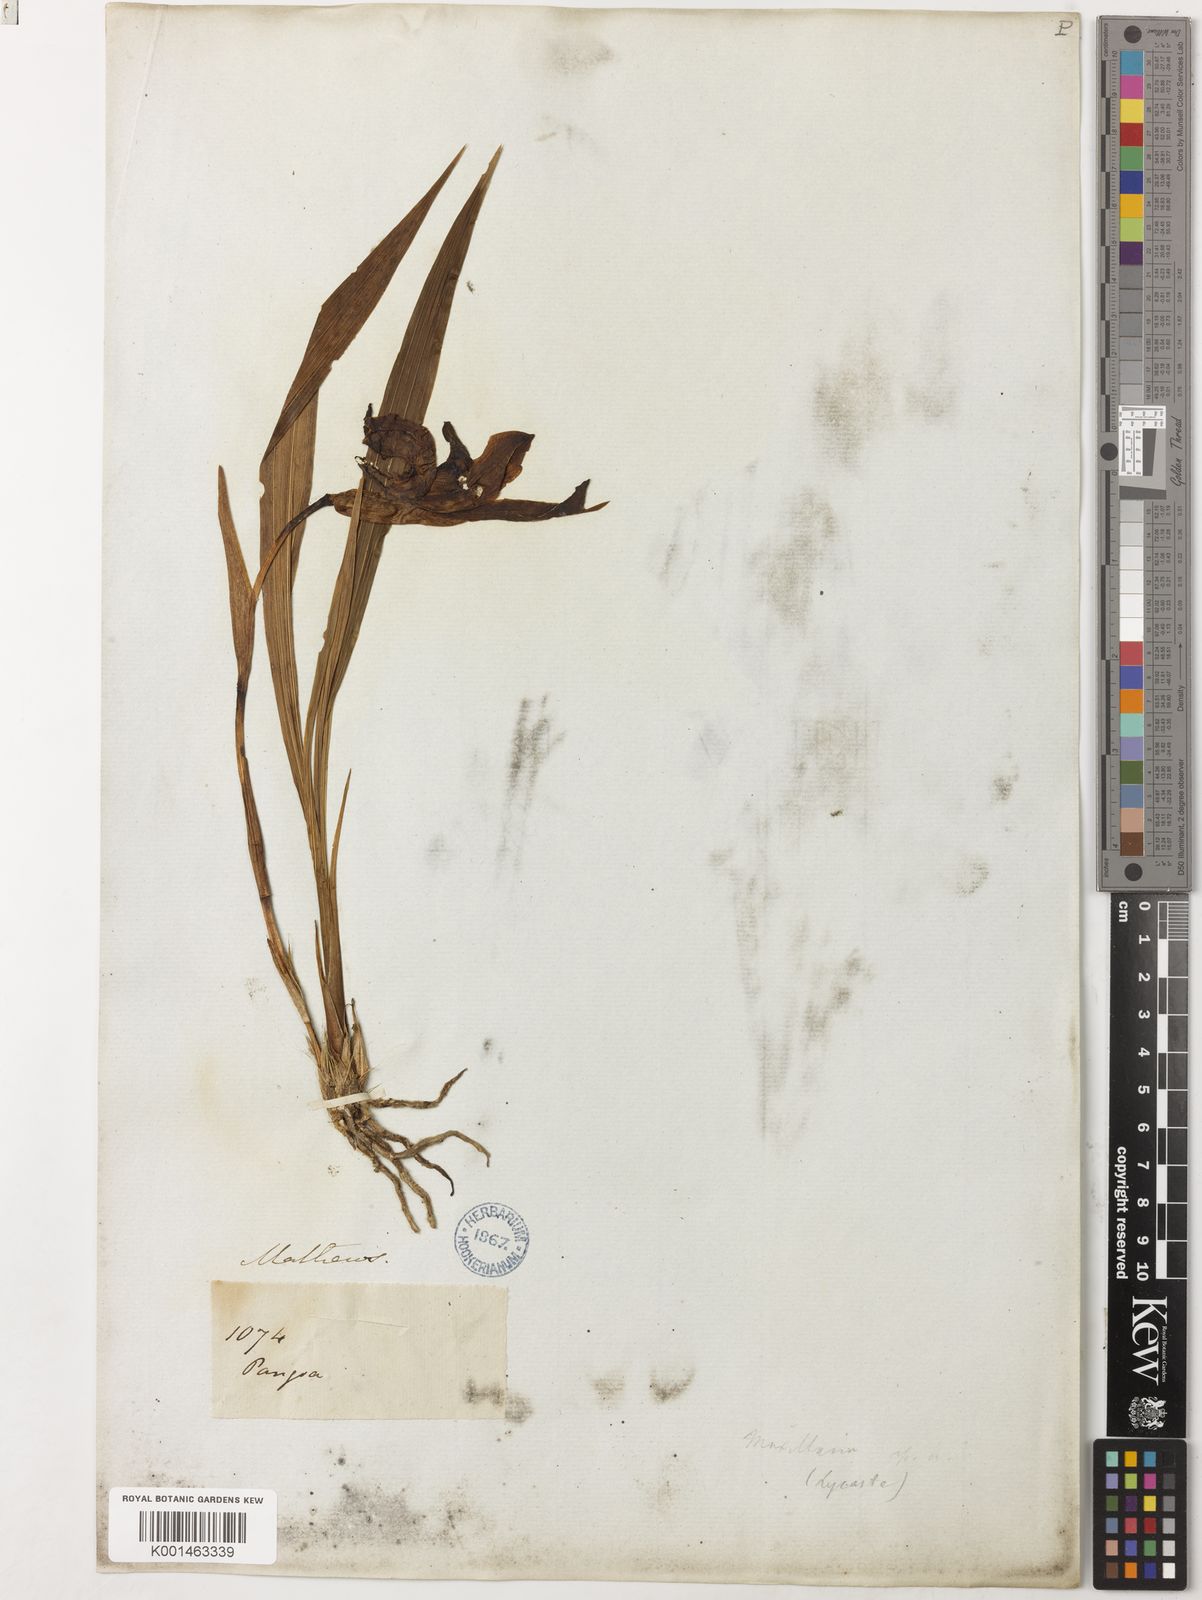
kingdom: Plantae
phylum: Tracheophyta
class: Liliopsida
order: Asparagales
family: Orchidaceae
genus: Ida
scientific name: Ida reichenbachii
